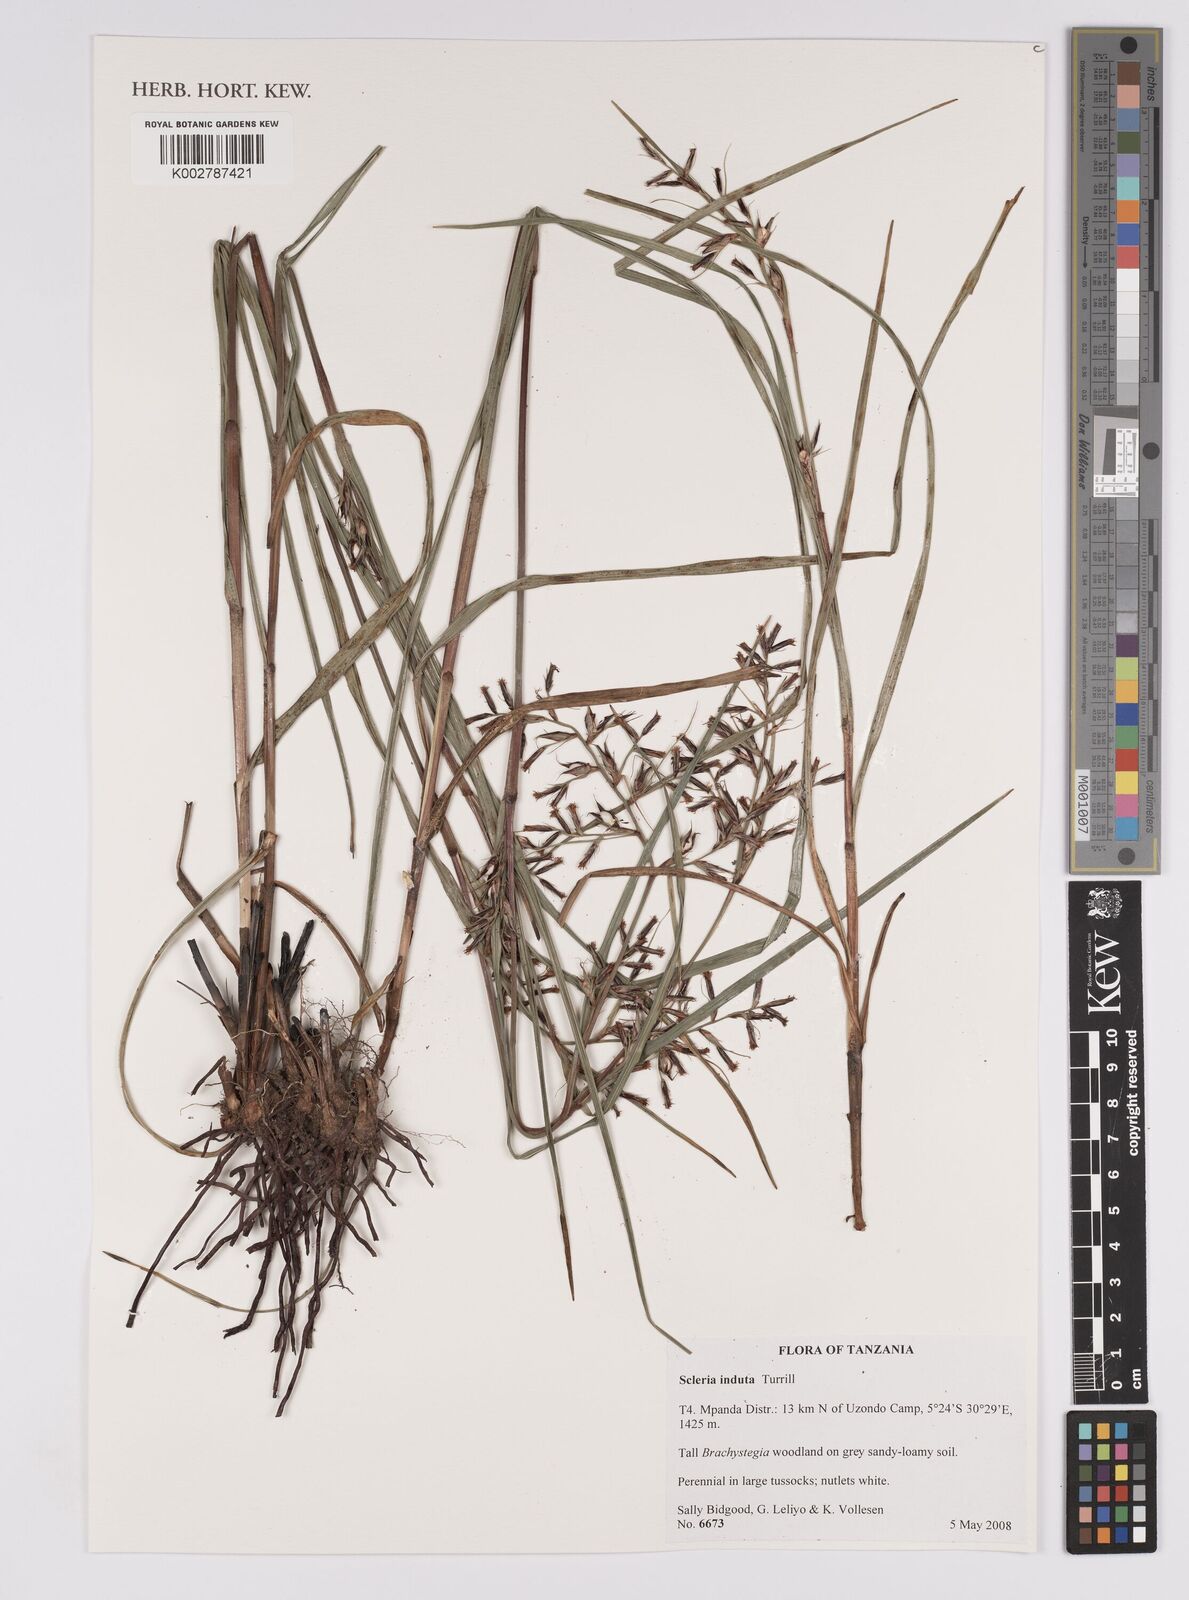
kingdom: Plantae
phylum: Tracheophyta
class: Liliopsida
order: Poales
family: Cyperaceae
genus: Scleria
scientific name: Scleria indica
